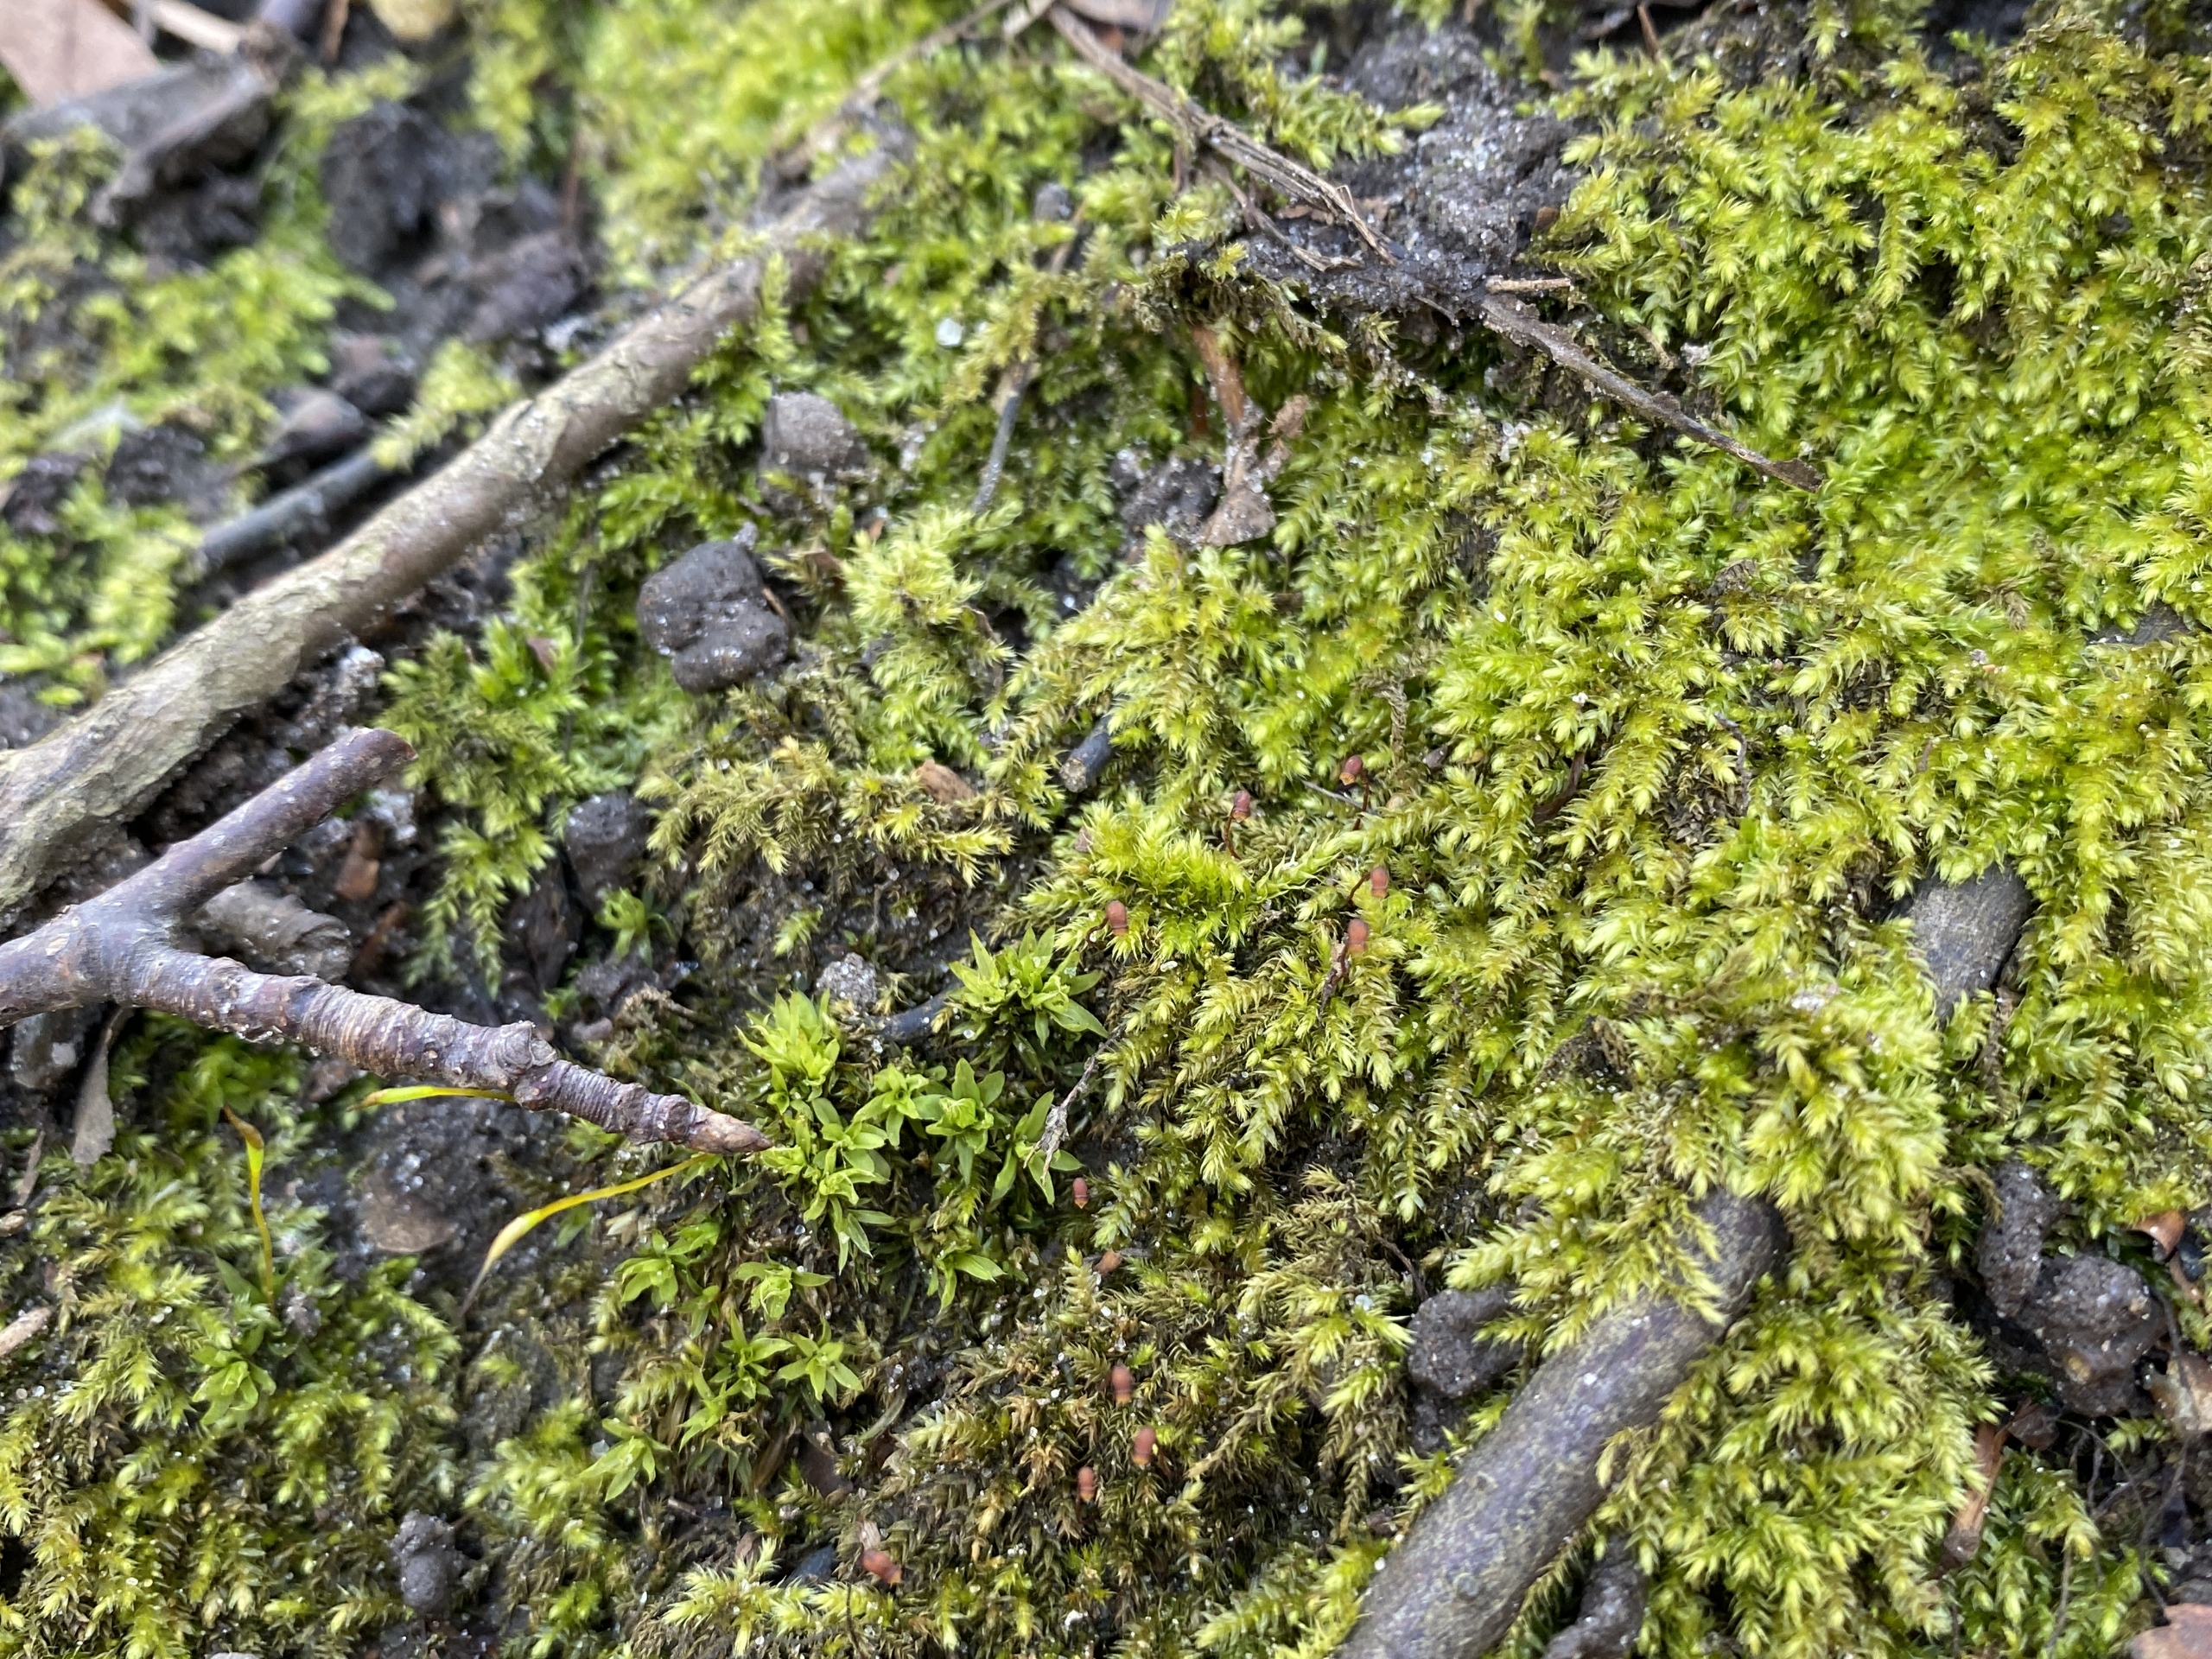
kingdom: Plantae
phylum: Bryophyta
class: Bryopsida
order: Hypnales
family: Brachytheciaceae
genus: Oxyrrhynchium
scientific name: Oxyrrhynchium schleicheri
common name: Vredet vortetand
